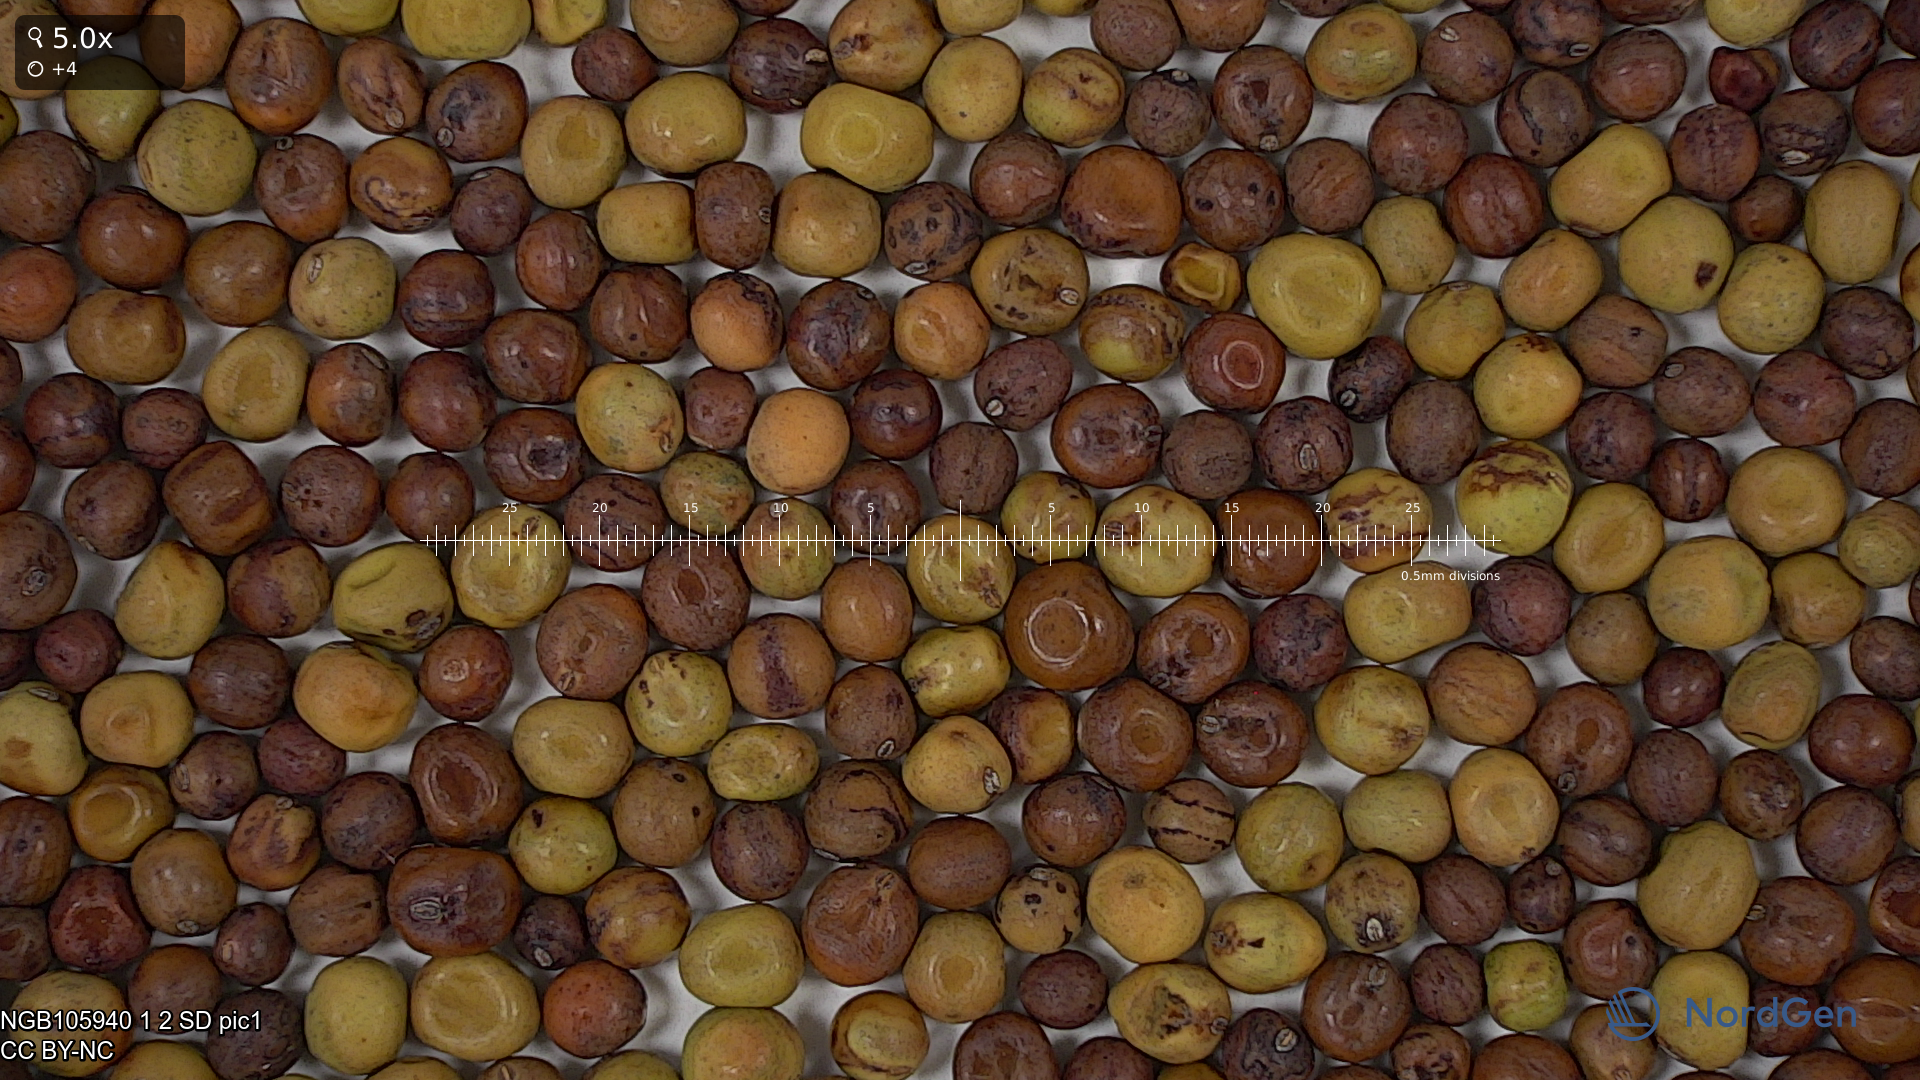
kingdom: Plantae
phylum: Tracheophyta
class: Magnoliopsida
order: Fabales
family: Fabaceae
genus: Lathyrus
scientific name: Lathyrus oleraceus
